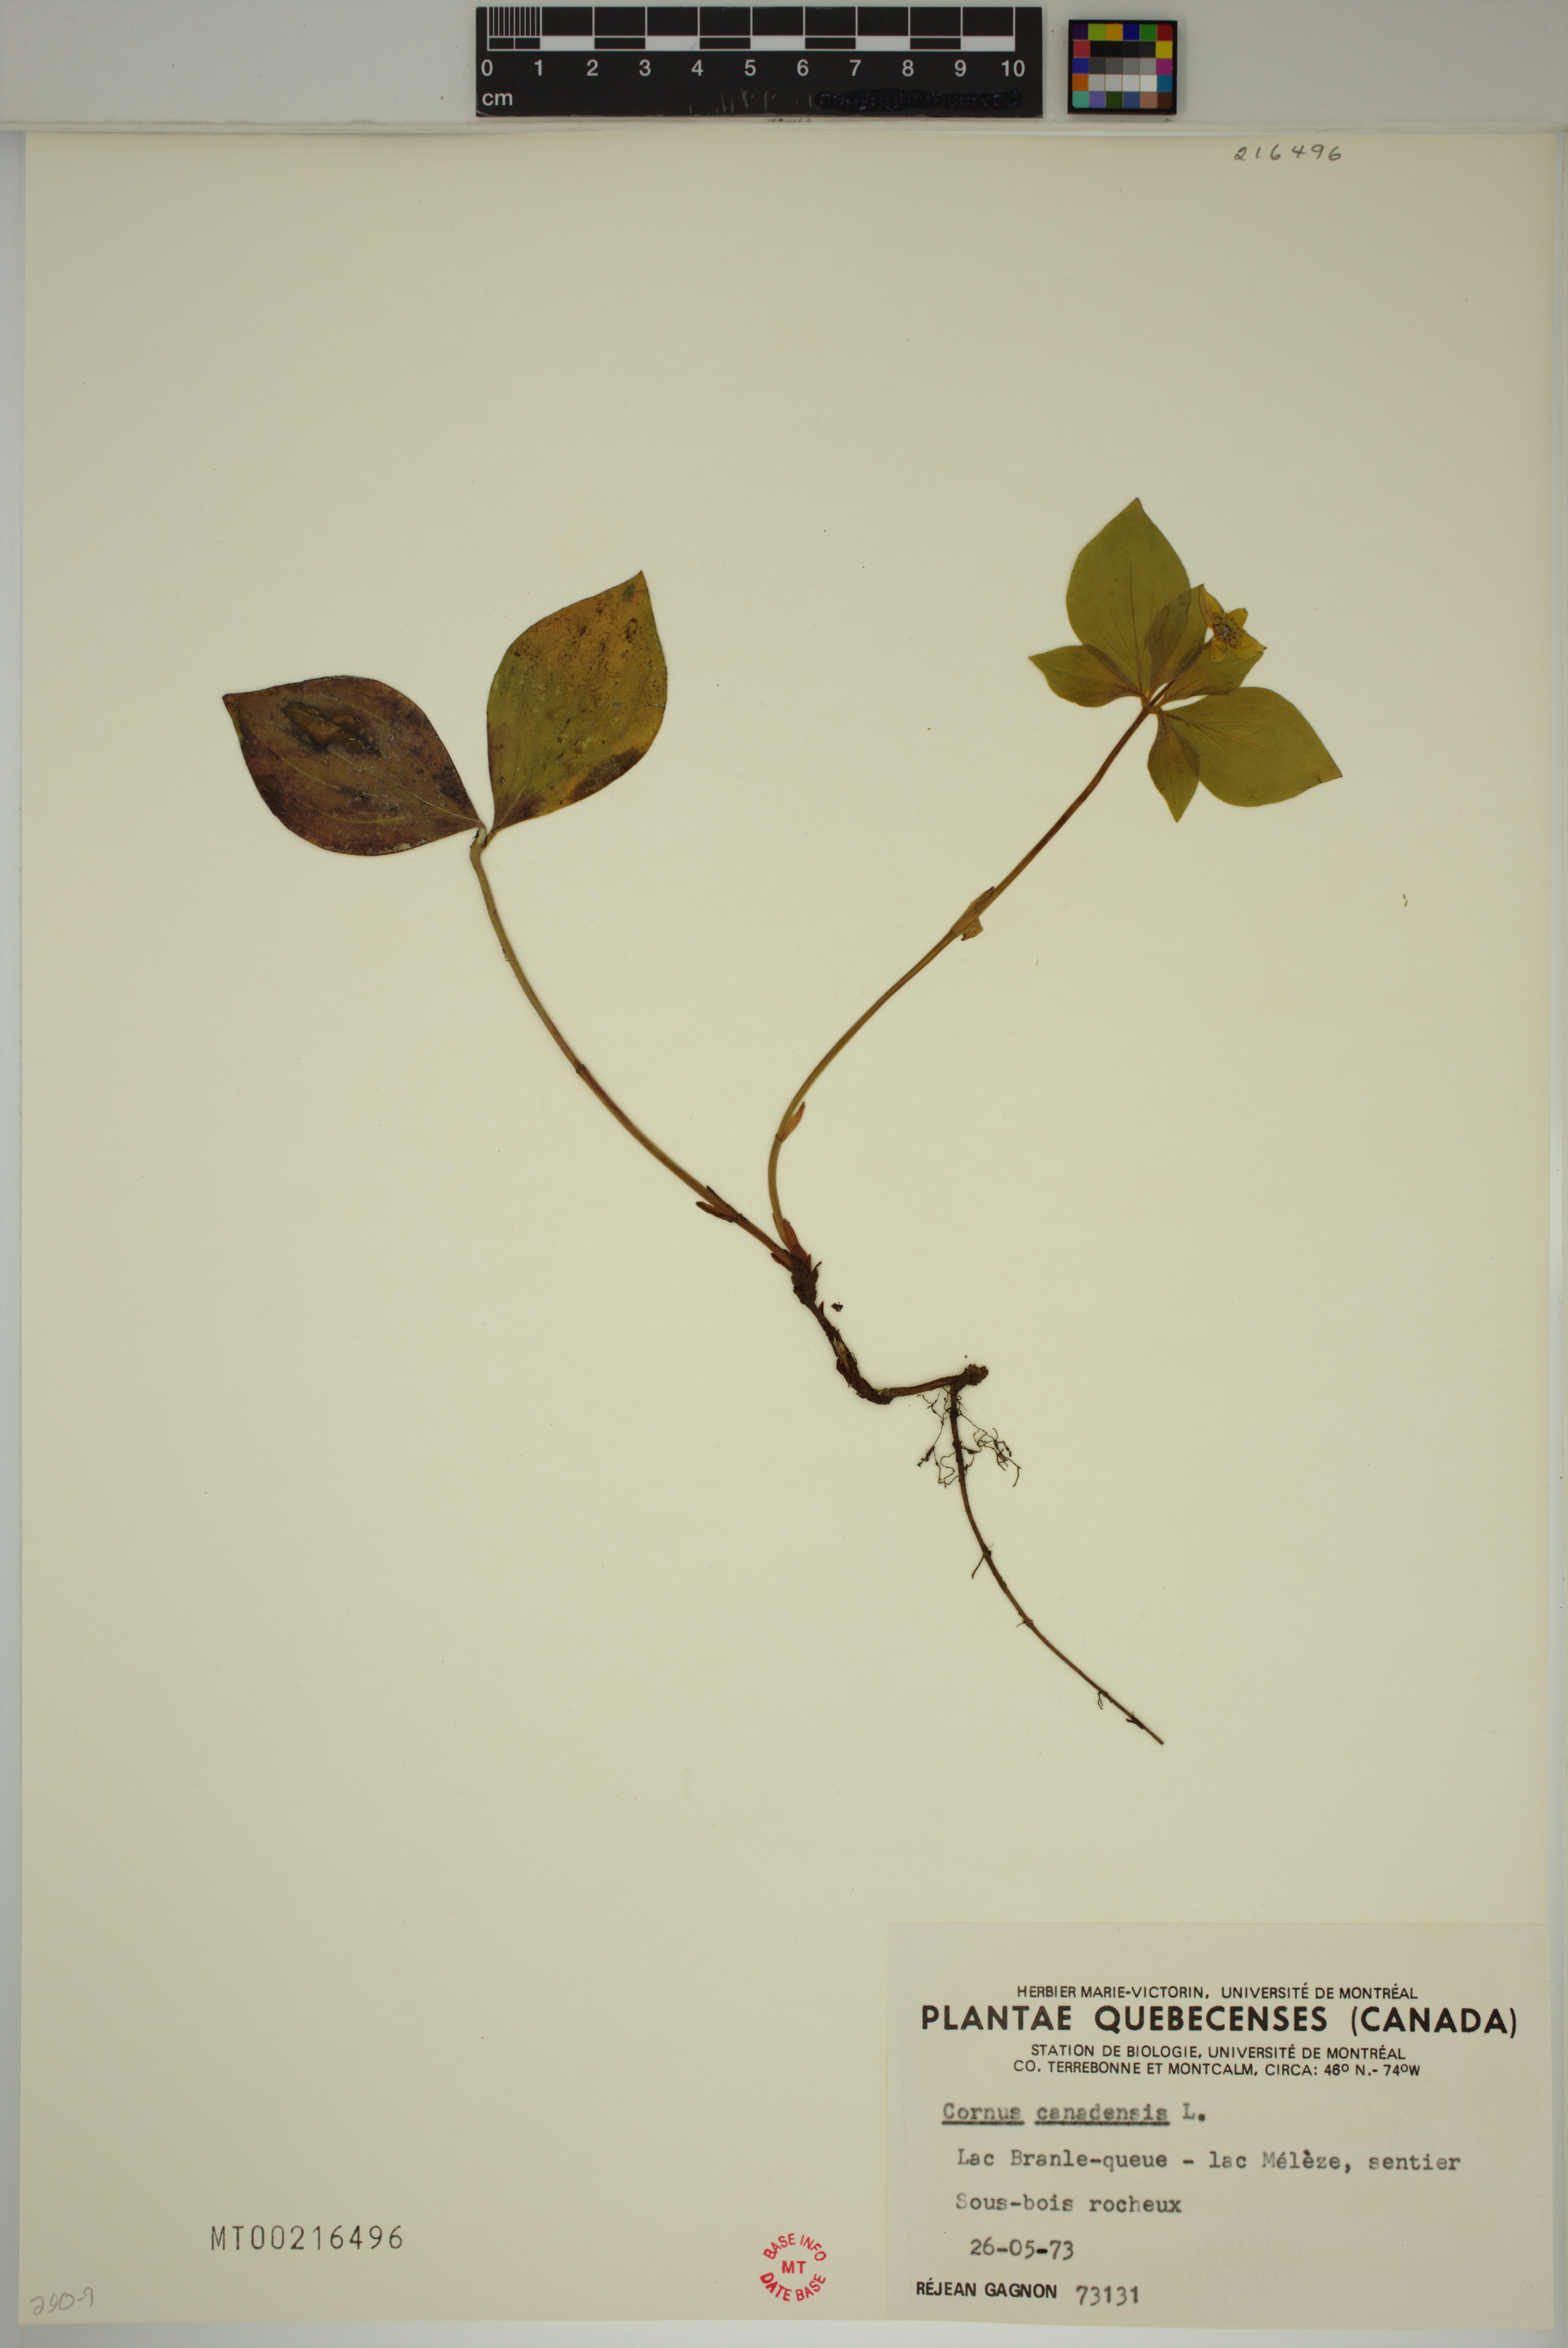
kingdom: Plantae
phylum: Tracheophyta
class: Magnoliopsida
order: Cornales
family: Cornaceae
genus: Cornus
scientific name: Cornus canadensis
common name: Creeping dogwood
